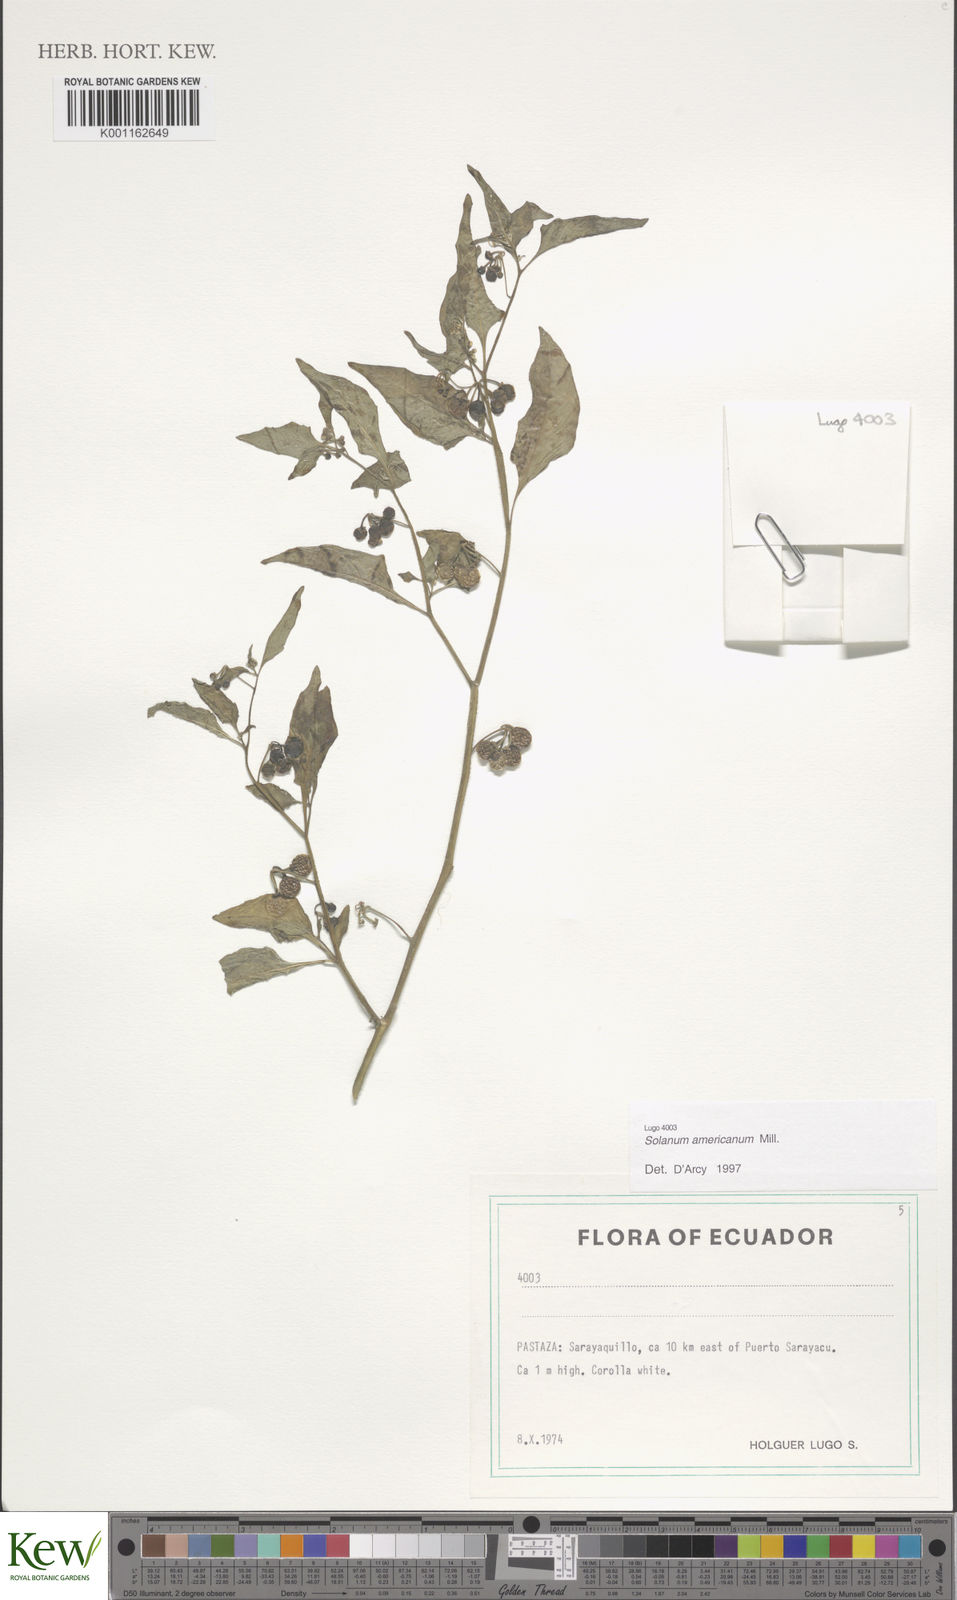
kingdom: Plantae
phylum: Tracheophyta
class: Magnoliopsida
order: Solanales
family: Solanaceae
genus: Solanum
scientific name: Solanum americanum
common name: American black nightshade
